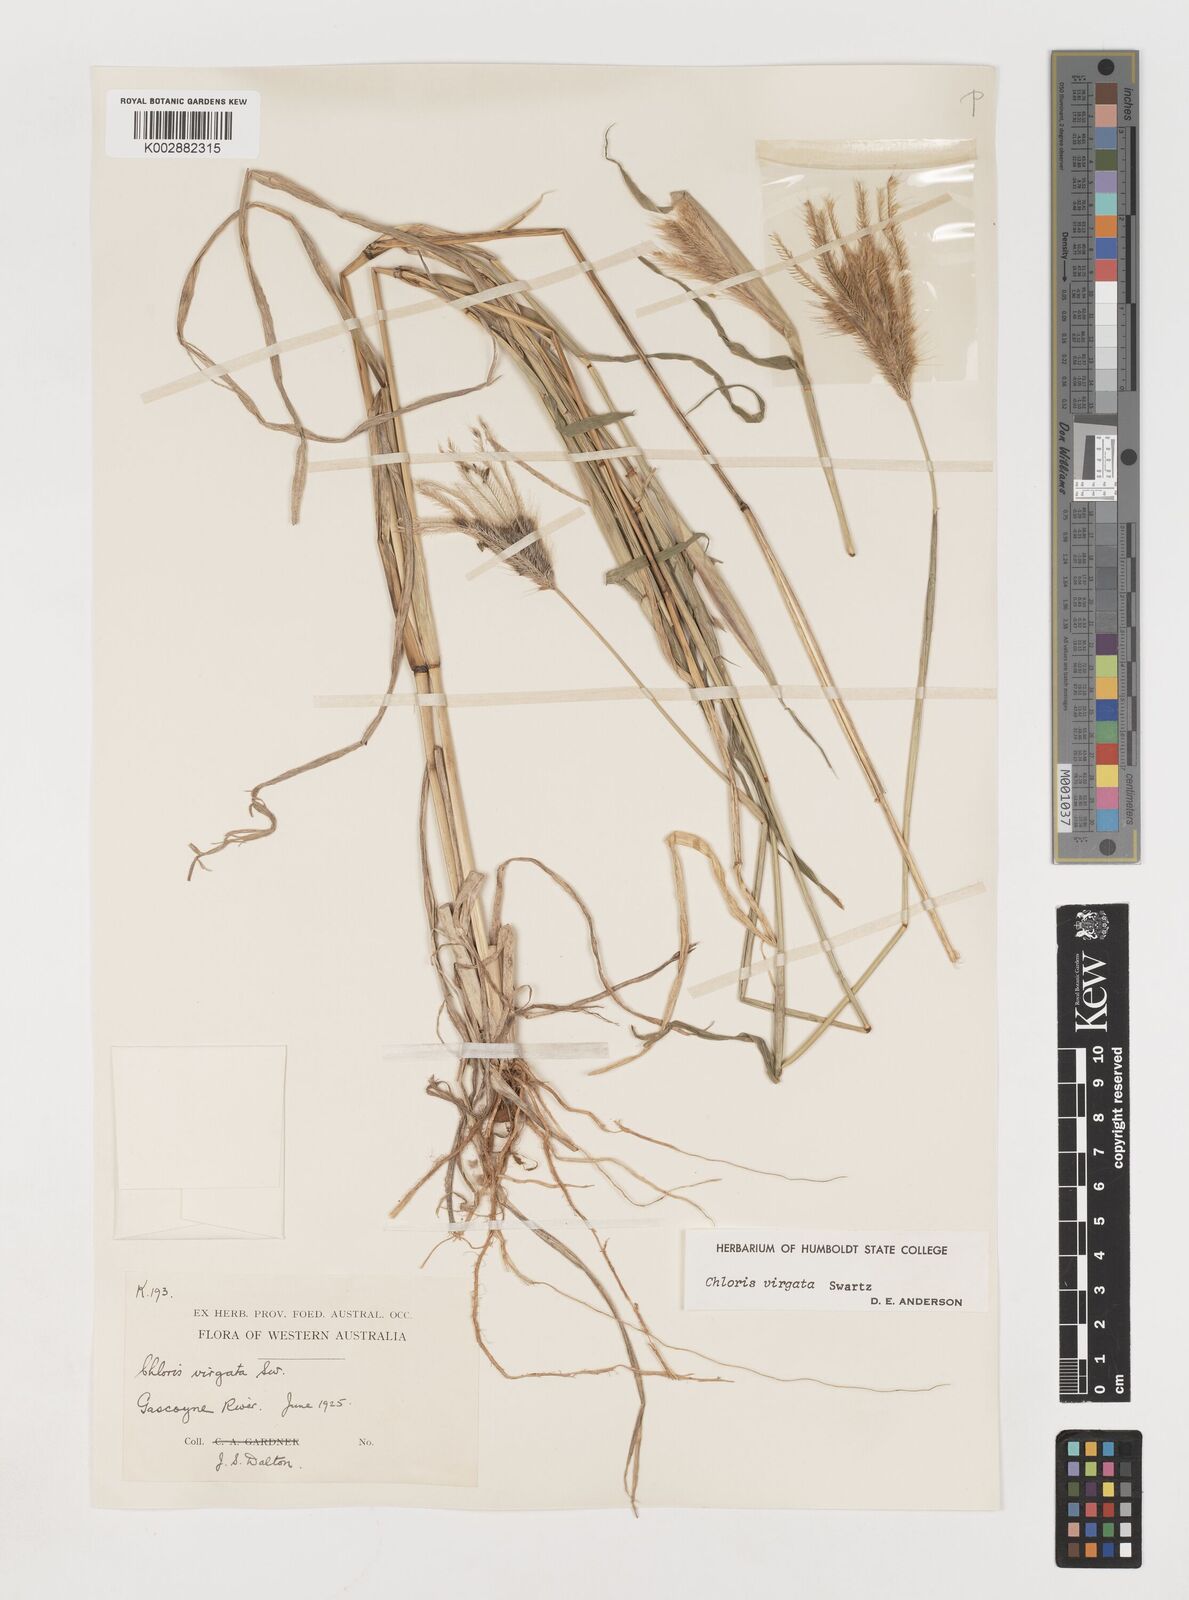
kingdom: Plantae
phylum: Tracheophyta
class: Liliopsida
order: Poales
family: Poaceae
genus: Chloris
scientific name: Chloris virgata
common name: Feathery rhodes-grass
